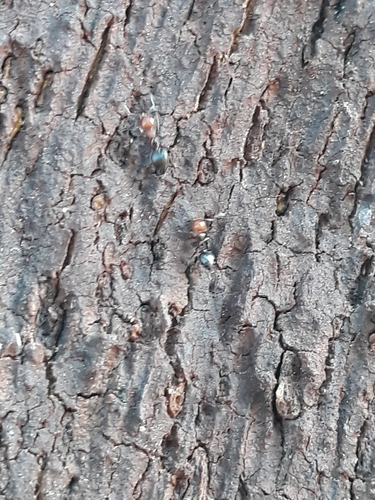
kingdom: Animalia
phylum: Arthropoda
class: Insecta
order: Hymenoptera
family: Formicidae
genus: Crematogaster
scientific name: Crematogaster scutellaris
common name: Fourmi du liège
